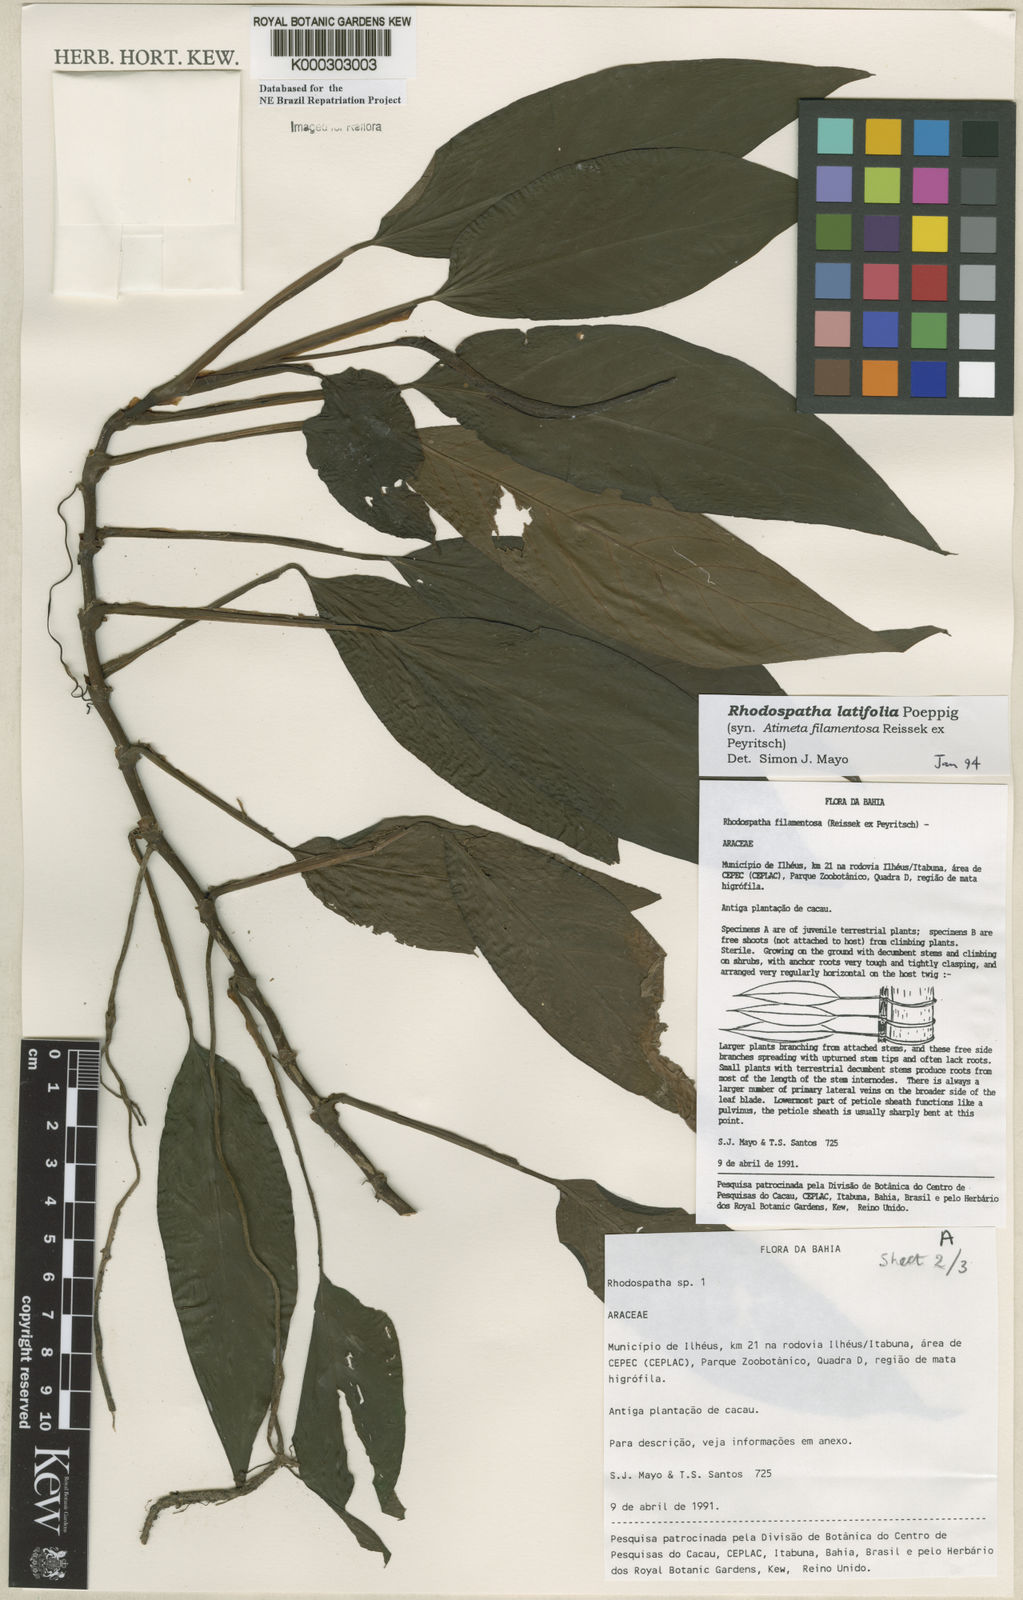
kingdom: Plantae
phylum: Tracheophyta
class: Liliopsida
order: Alismatales
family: Araceae
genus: Rhodospatha
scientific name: Rhodospatha latifolia
